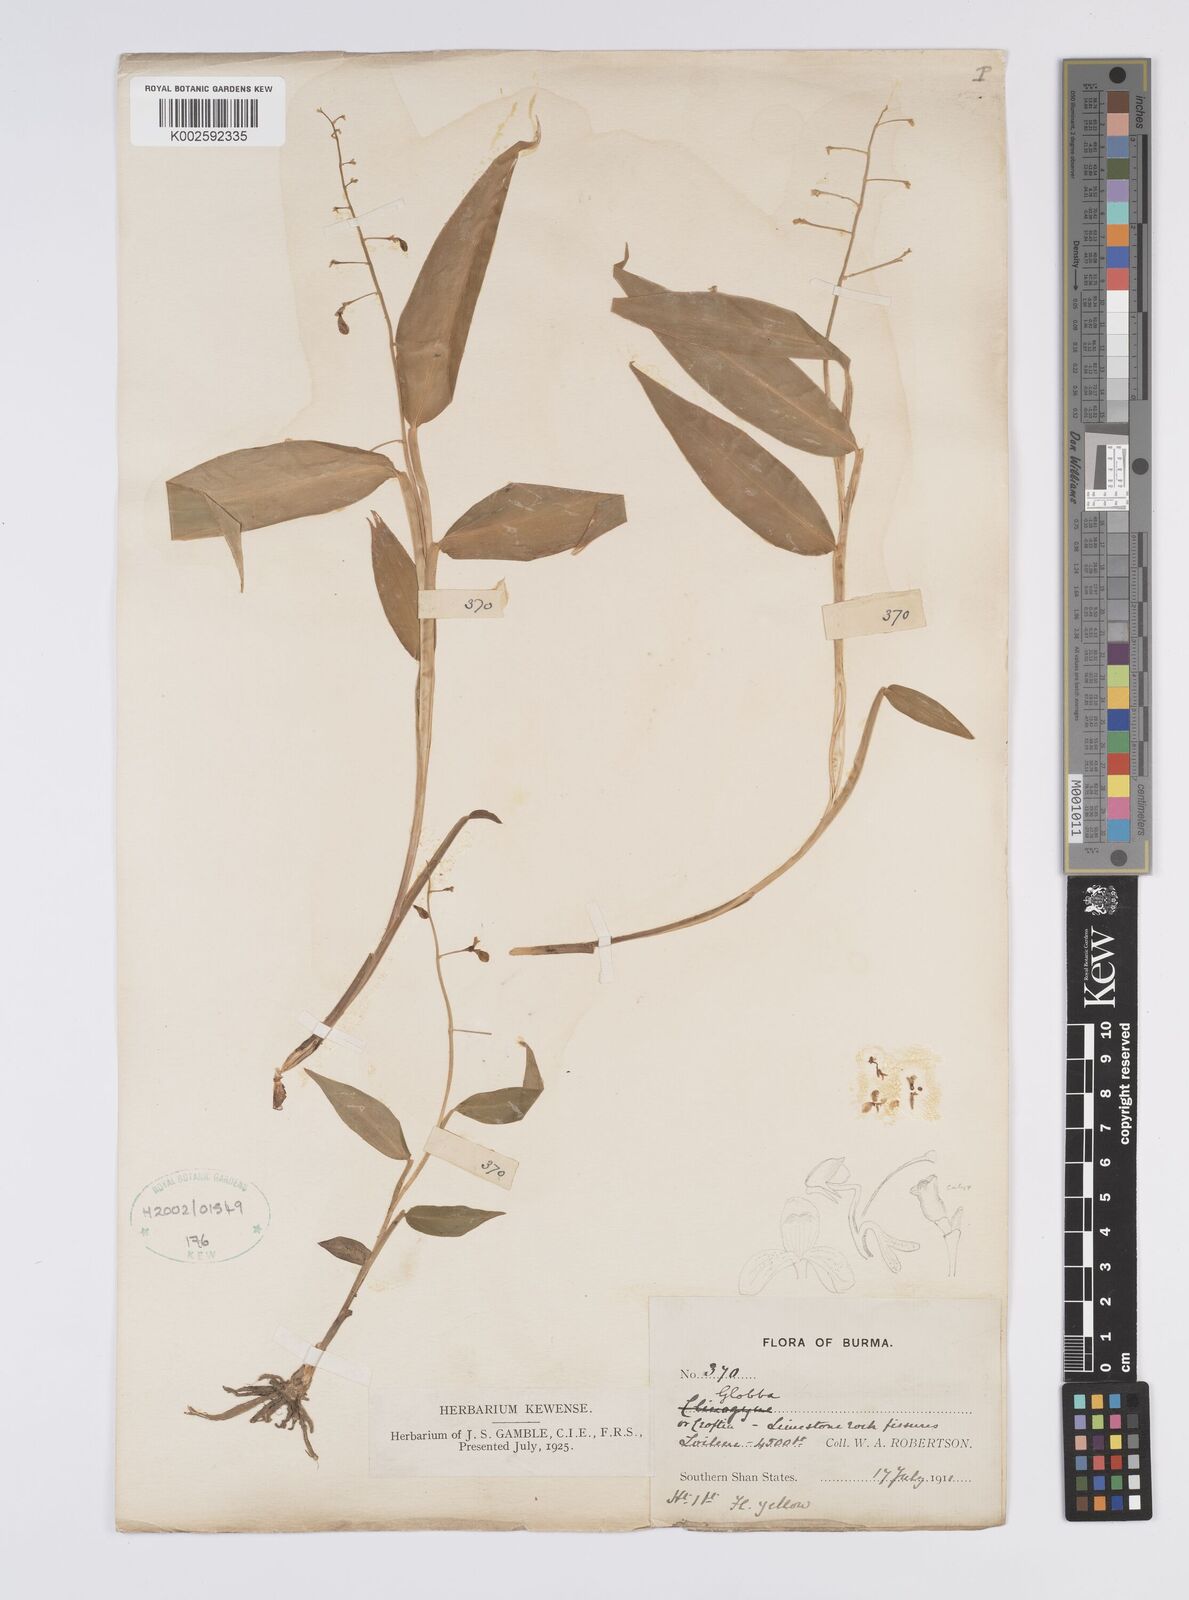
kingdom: Plantae
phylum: Tracheophyta
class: Liliopsida
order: Zingiberales
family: Zingiberaceae
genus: Globba
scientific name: Globba
